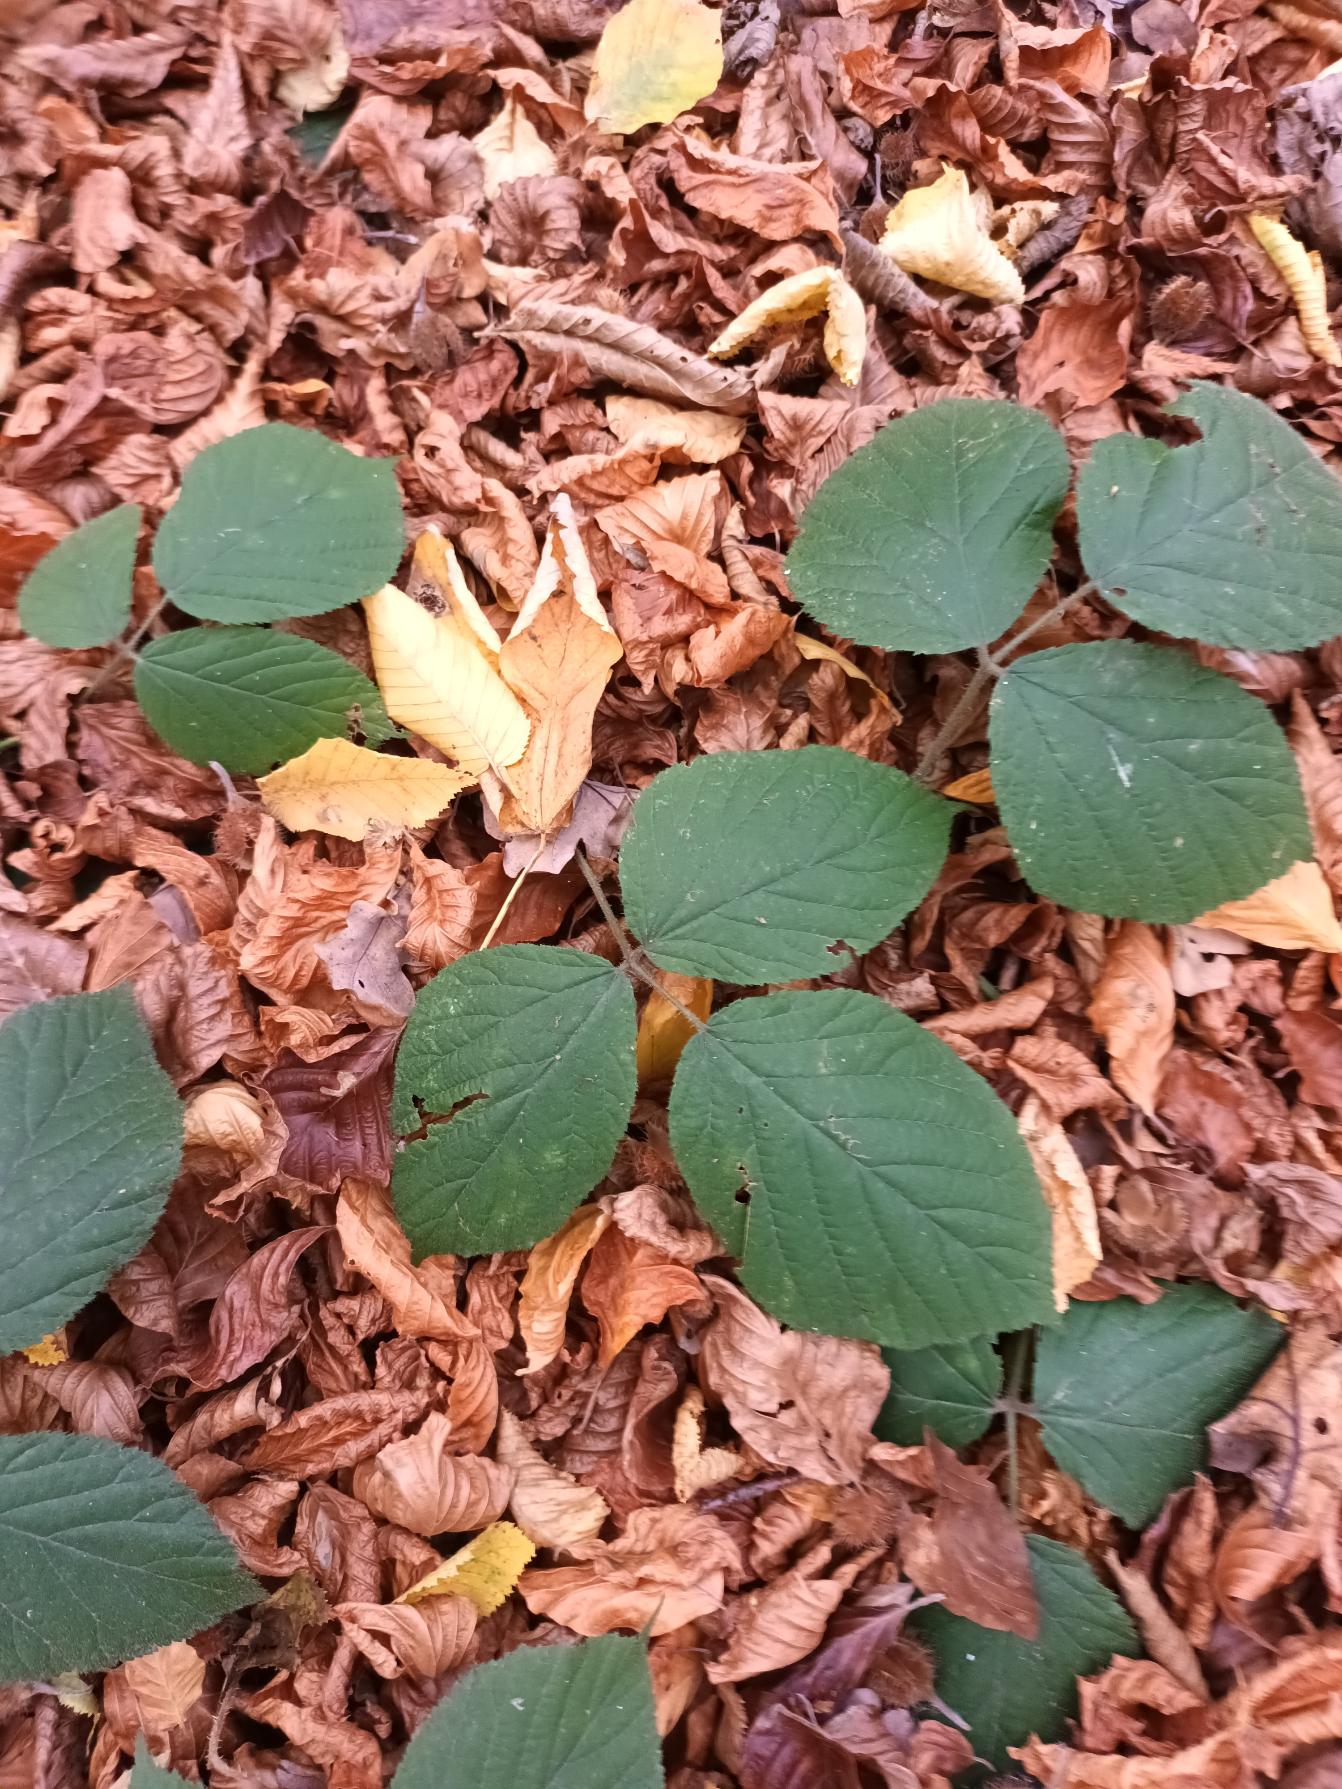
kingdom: Plantae
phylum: Tracheophyta
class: Magnoliopsida
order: Rosales
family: Rosaceae
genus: Rubus
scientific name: Rubus nigricans
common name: Trebladet brombær
